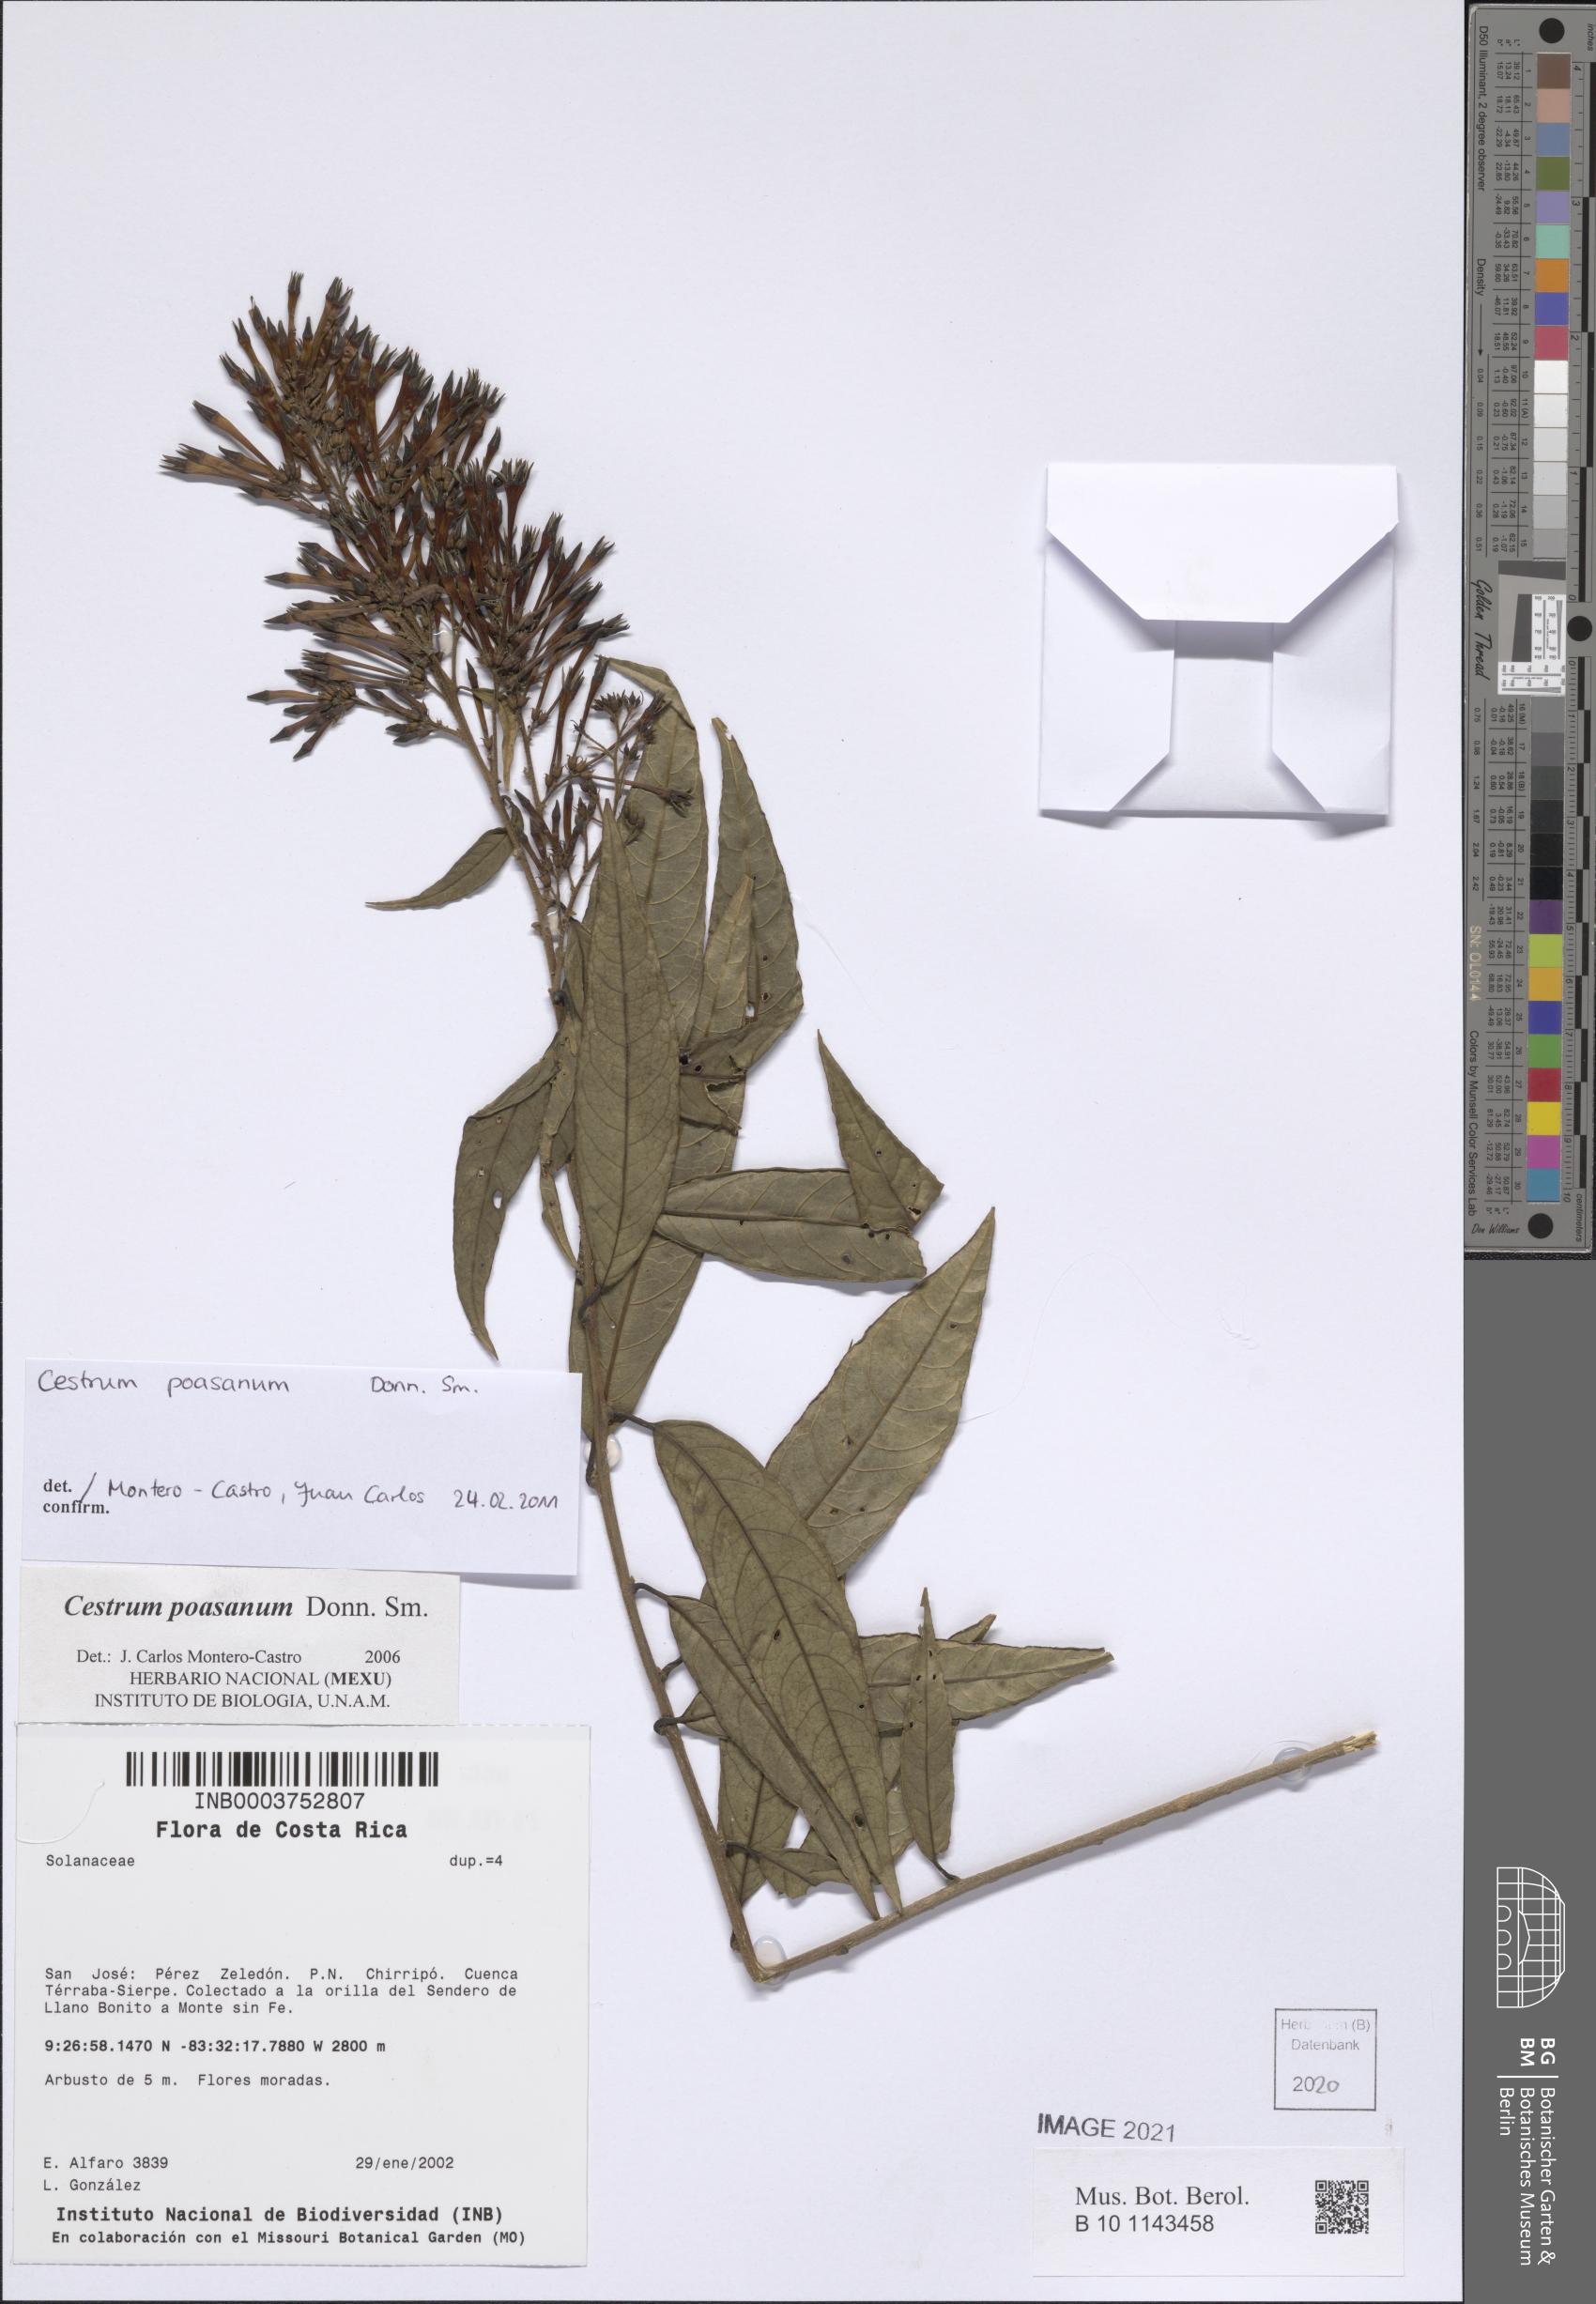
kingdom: Plantae
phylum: Tracheophyta
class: Magnoliopsida
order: Solanales
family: Solanaceae
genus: Cestrum
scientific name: Cestrum poasanum
